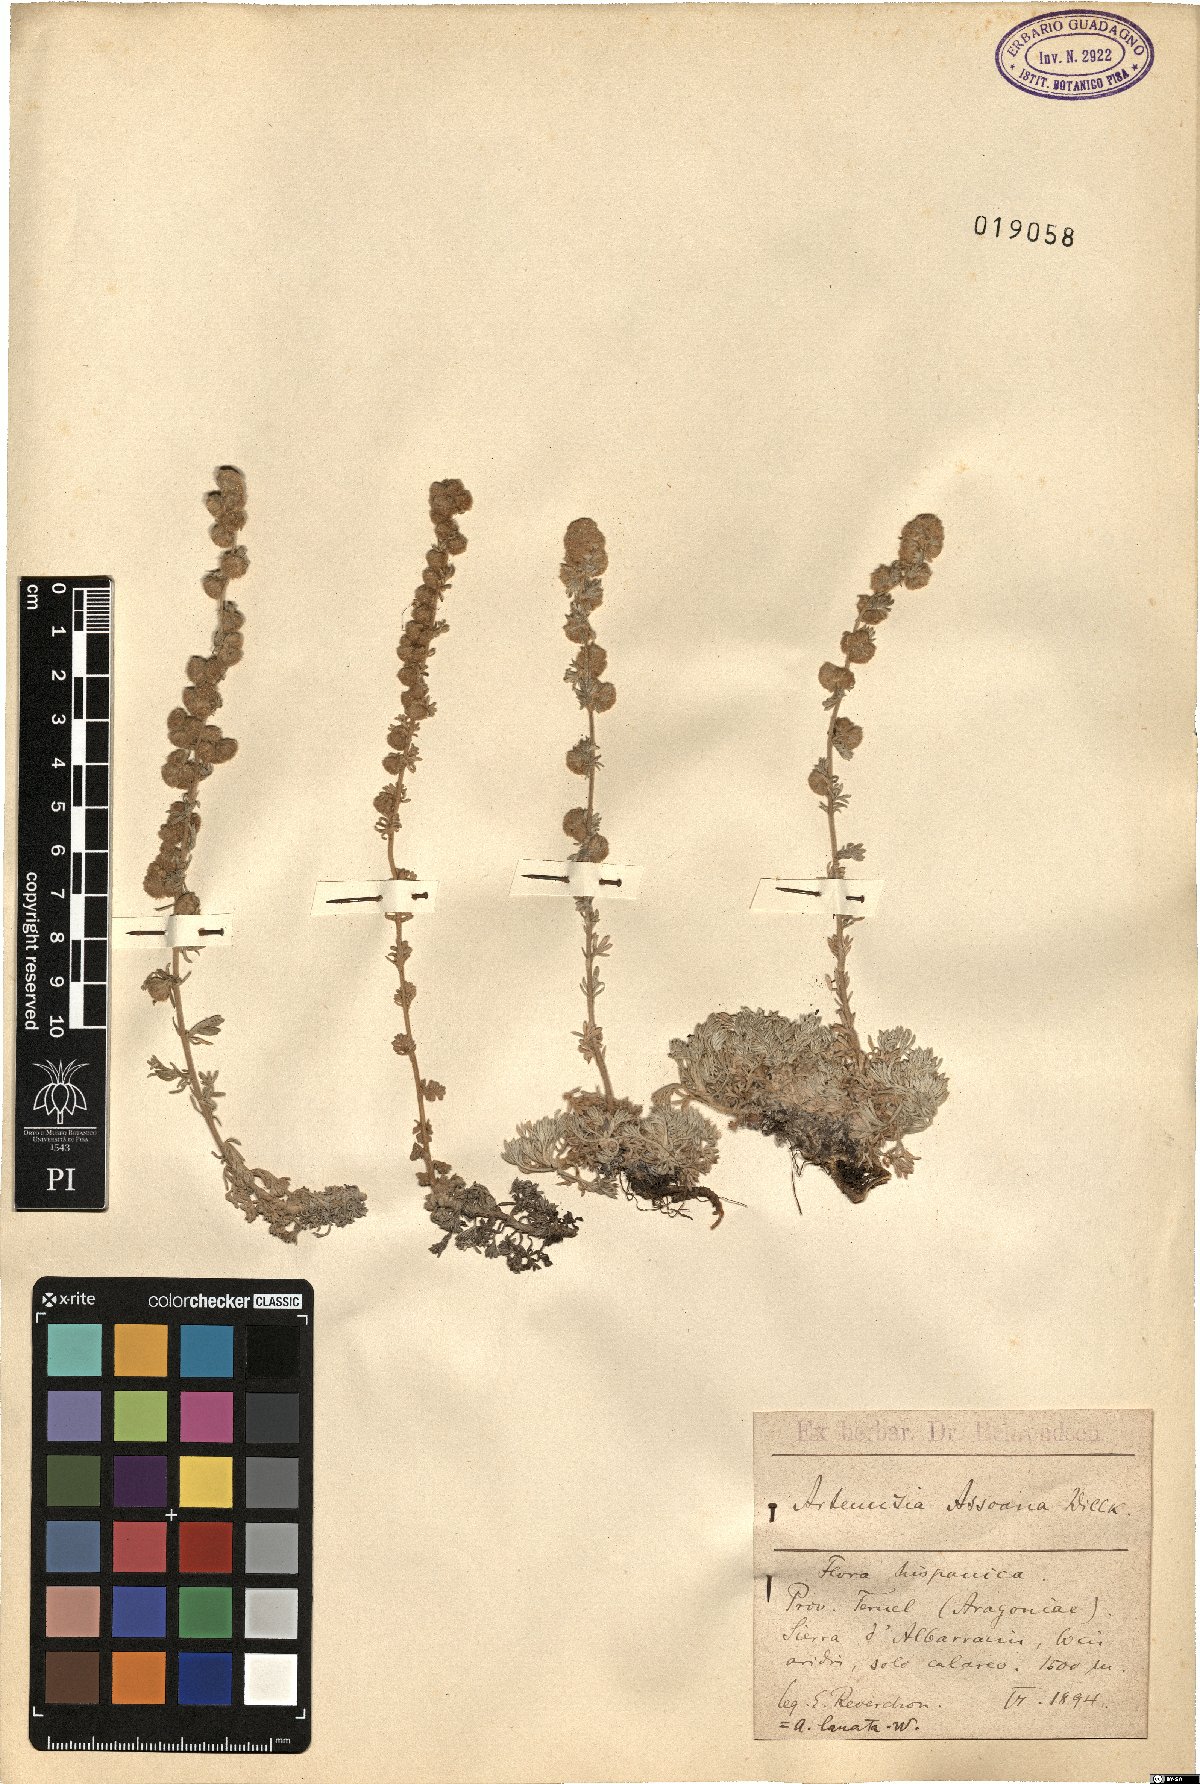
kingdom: Plantae
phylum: Tracheophyta
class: Magnoliopsida
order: Asterales
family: Asteraceae
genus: Artemisia
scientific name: Artemisia assoana
